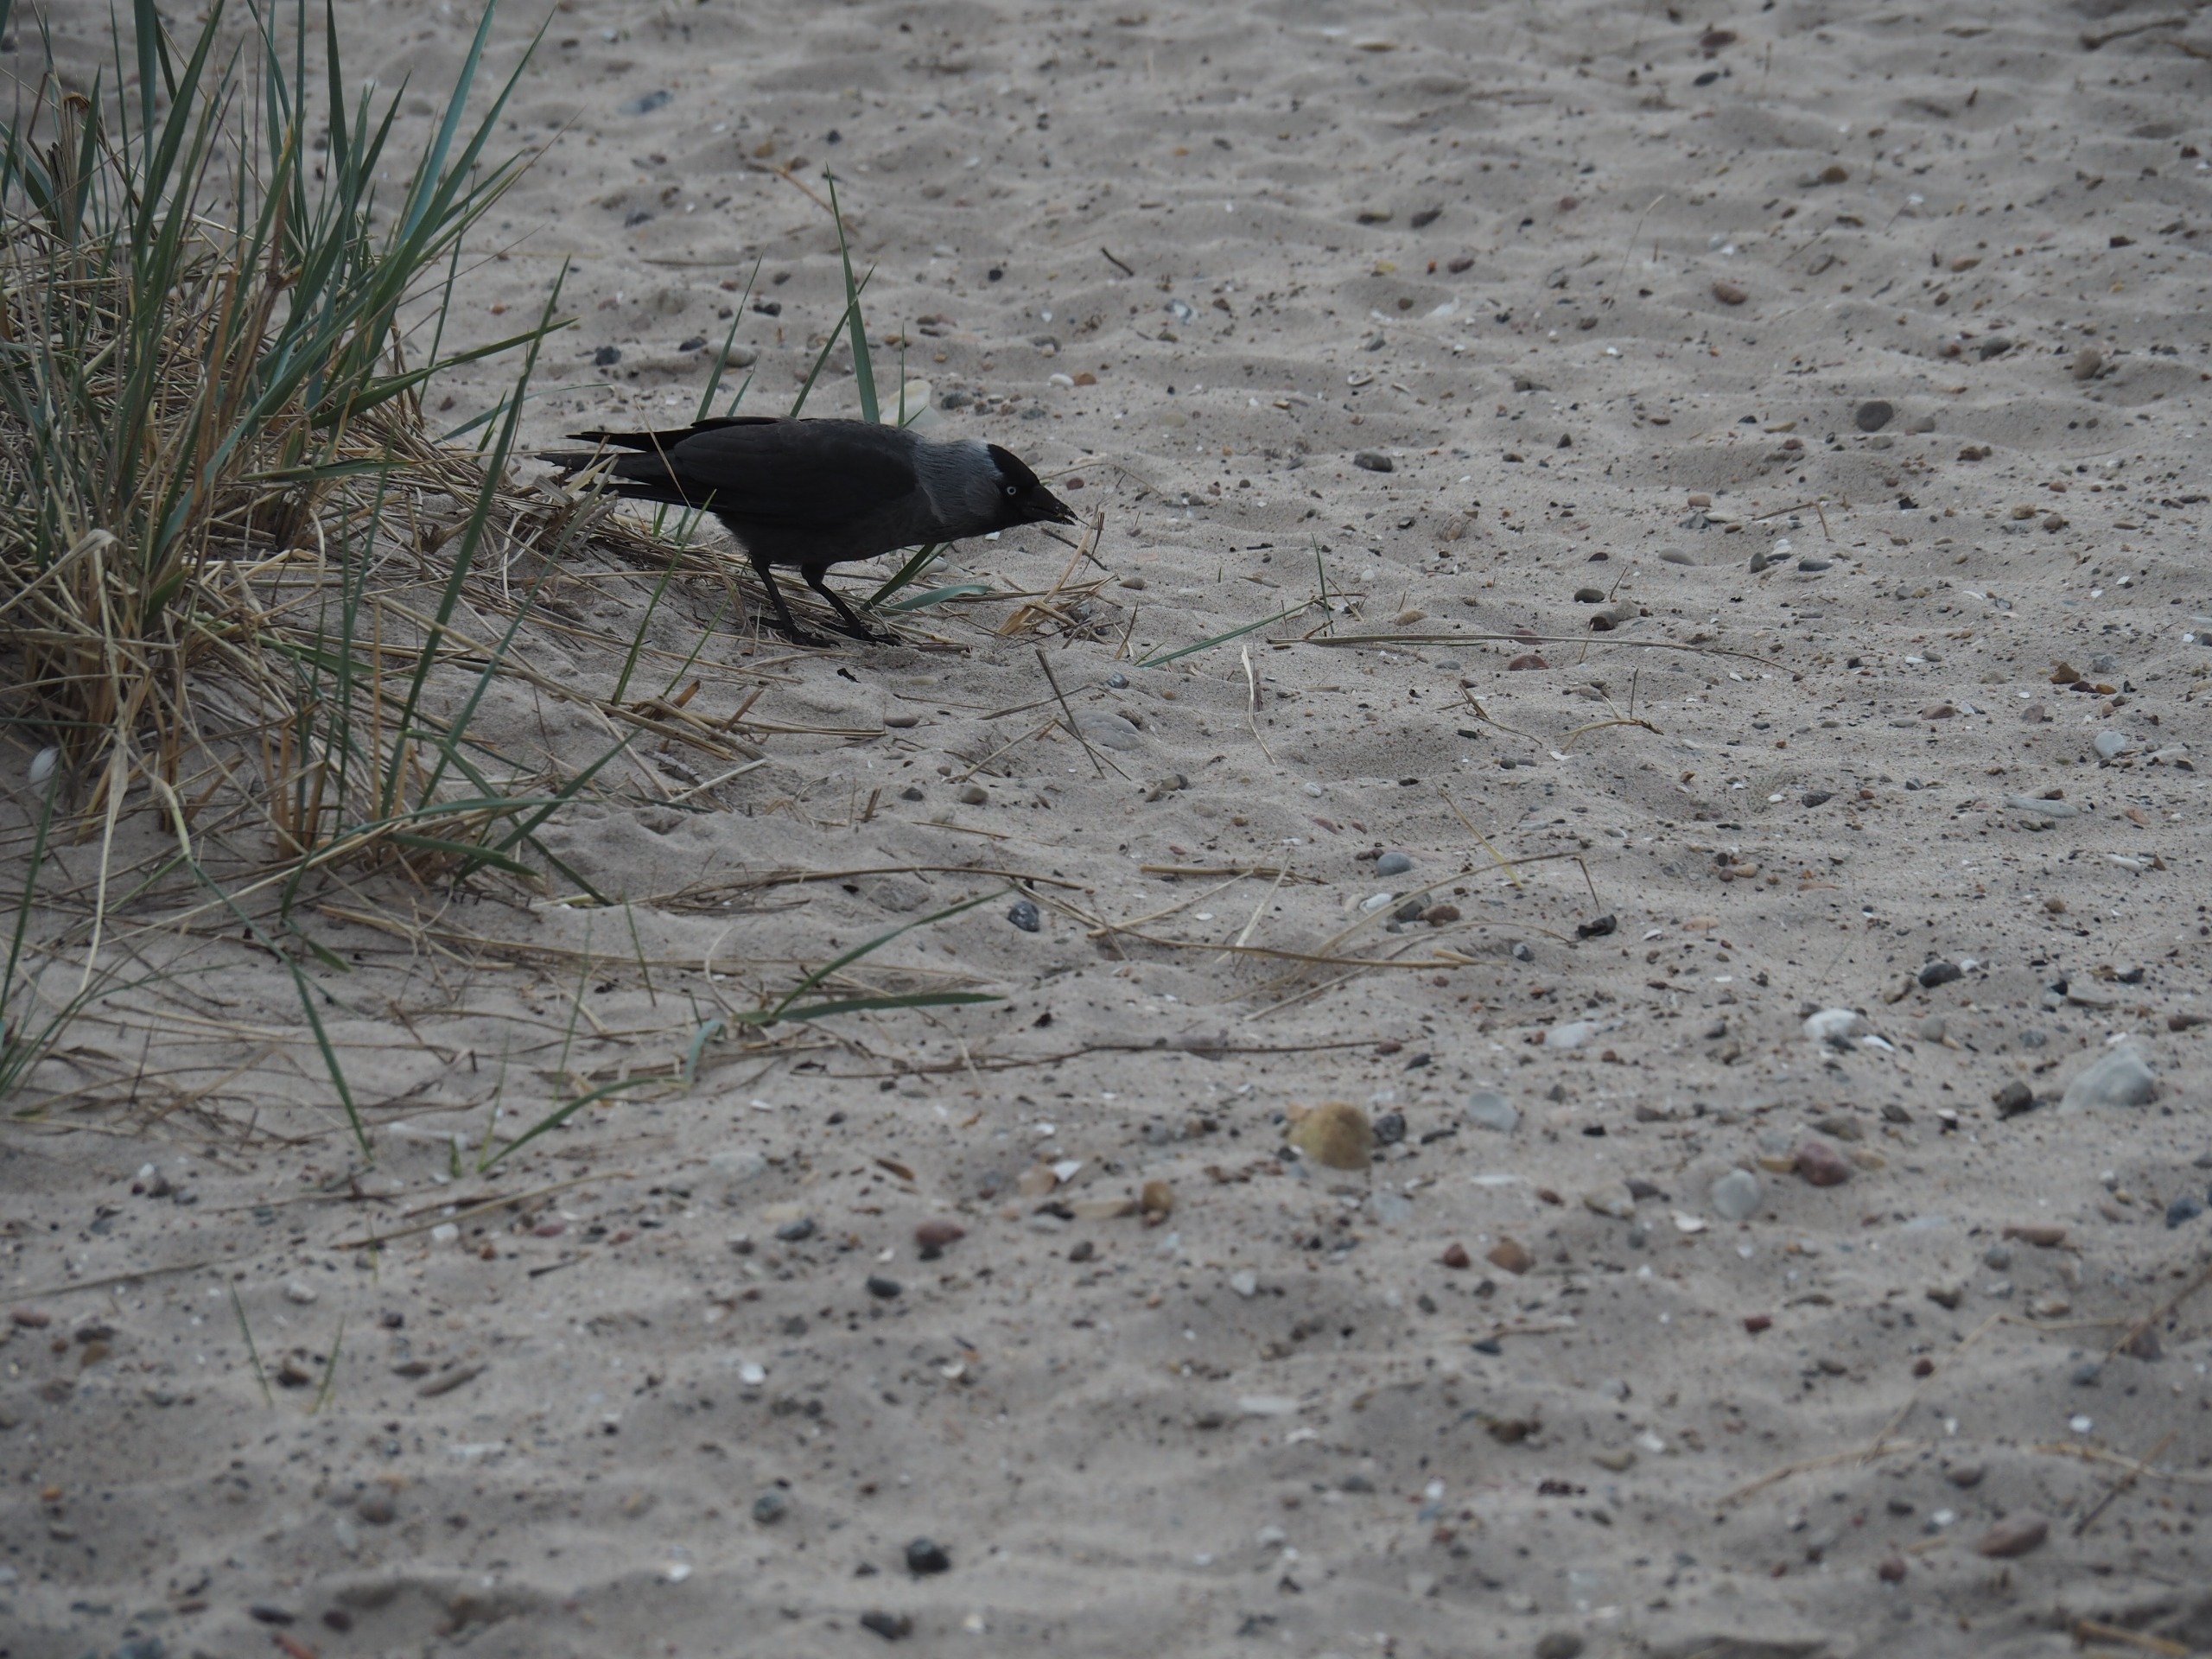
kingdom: Animalia
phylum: Chordata
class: Aves
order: Passeriformes
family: Corvidae
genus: Coloeus
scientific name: Coloeus monedula
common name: Allike
